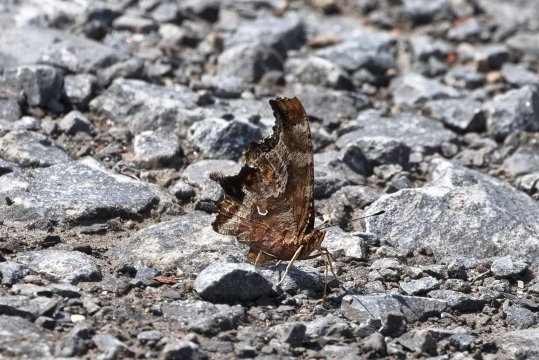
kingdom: Animalia
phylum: Arthropoda
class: Insecta
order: Lepidoptera
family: Nymphalidae
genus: Polygonia
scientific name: Polygonia comma
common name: Eastern Comma
